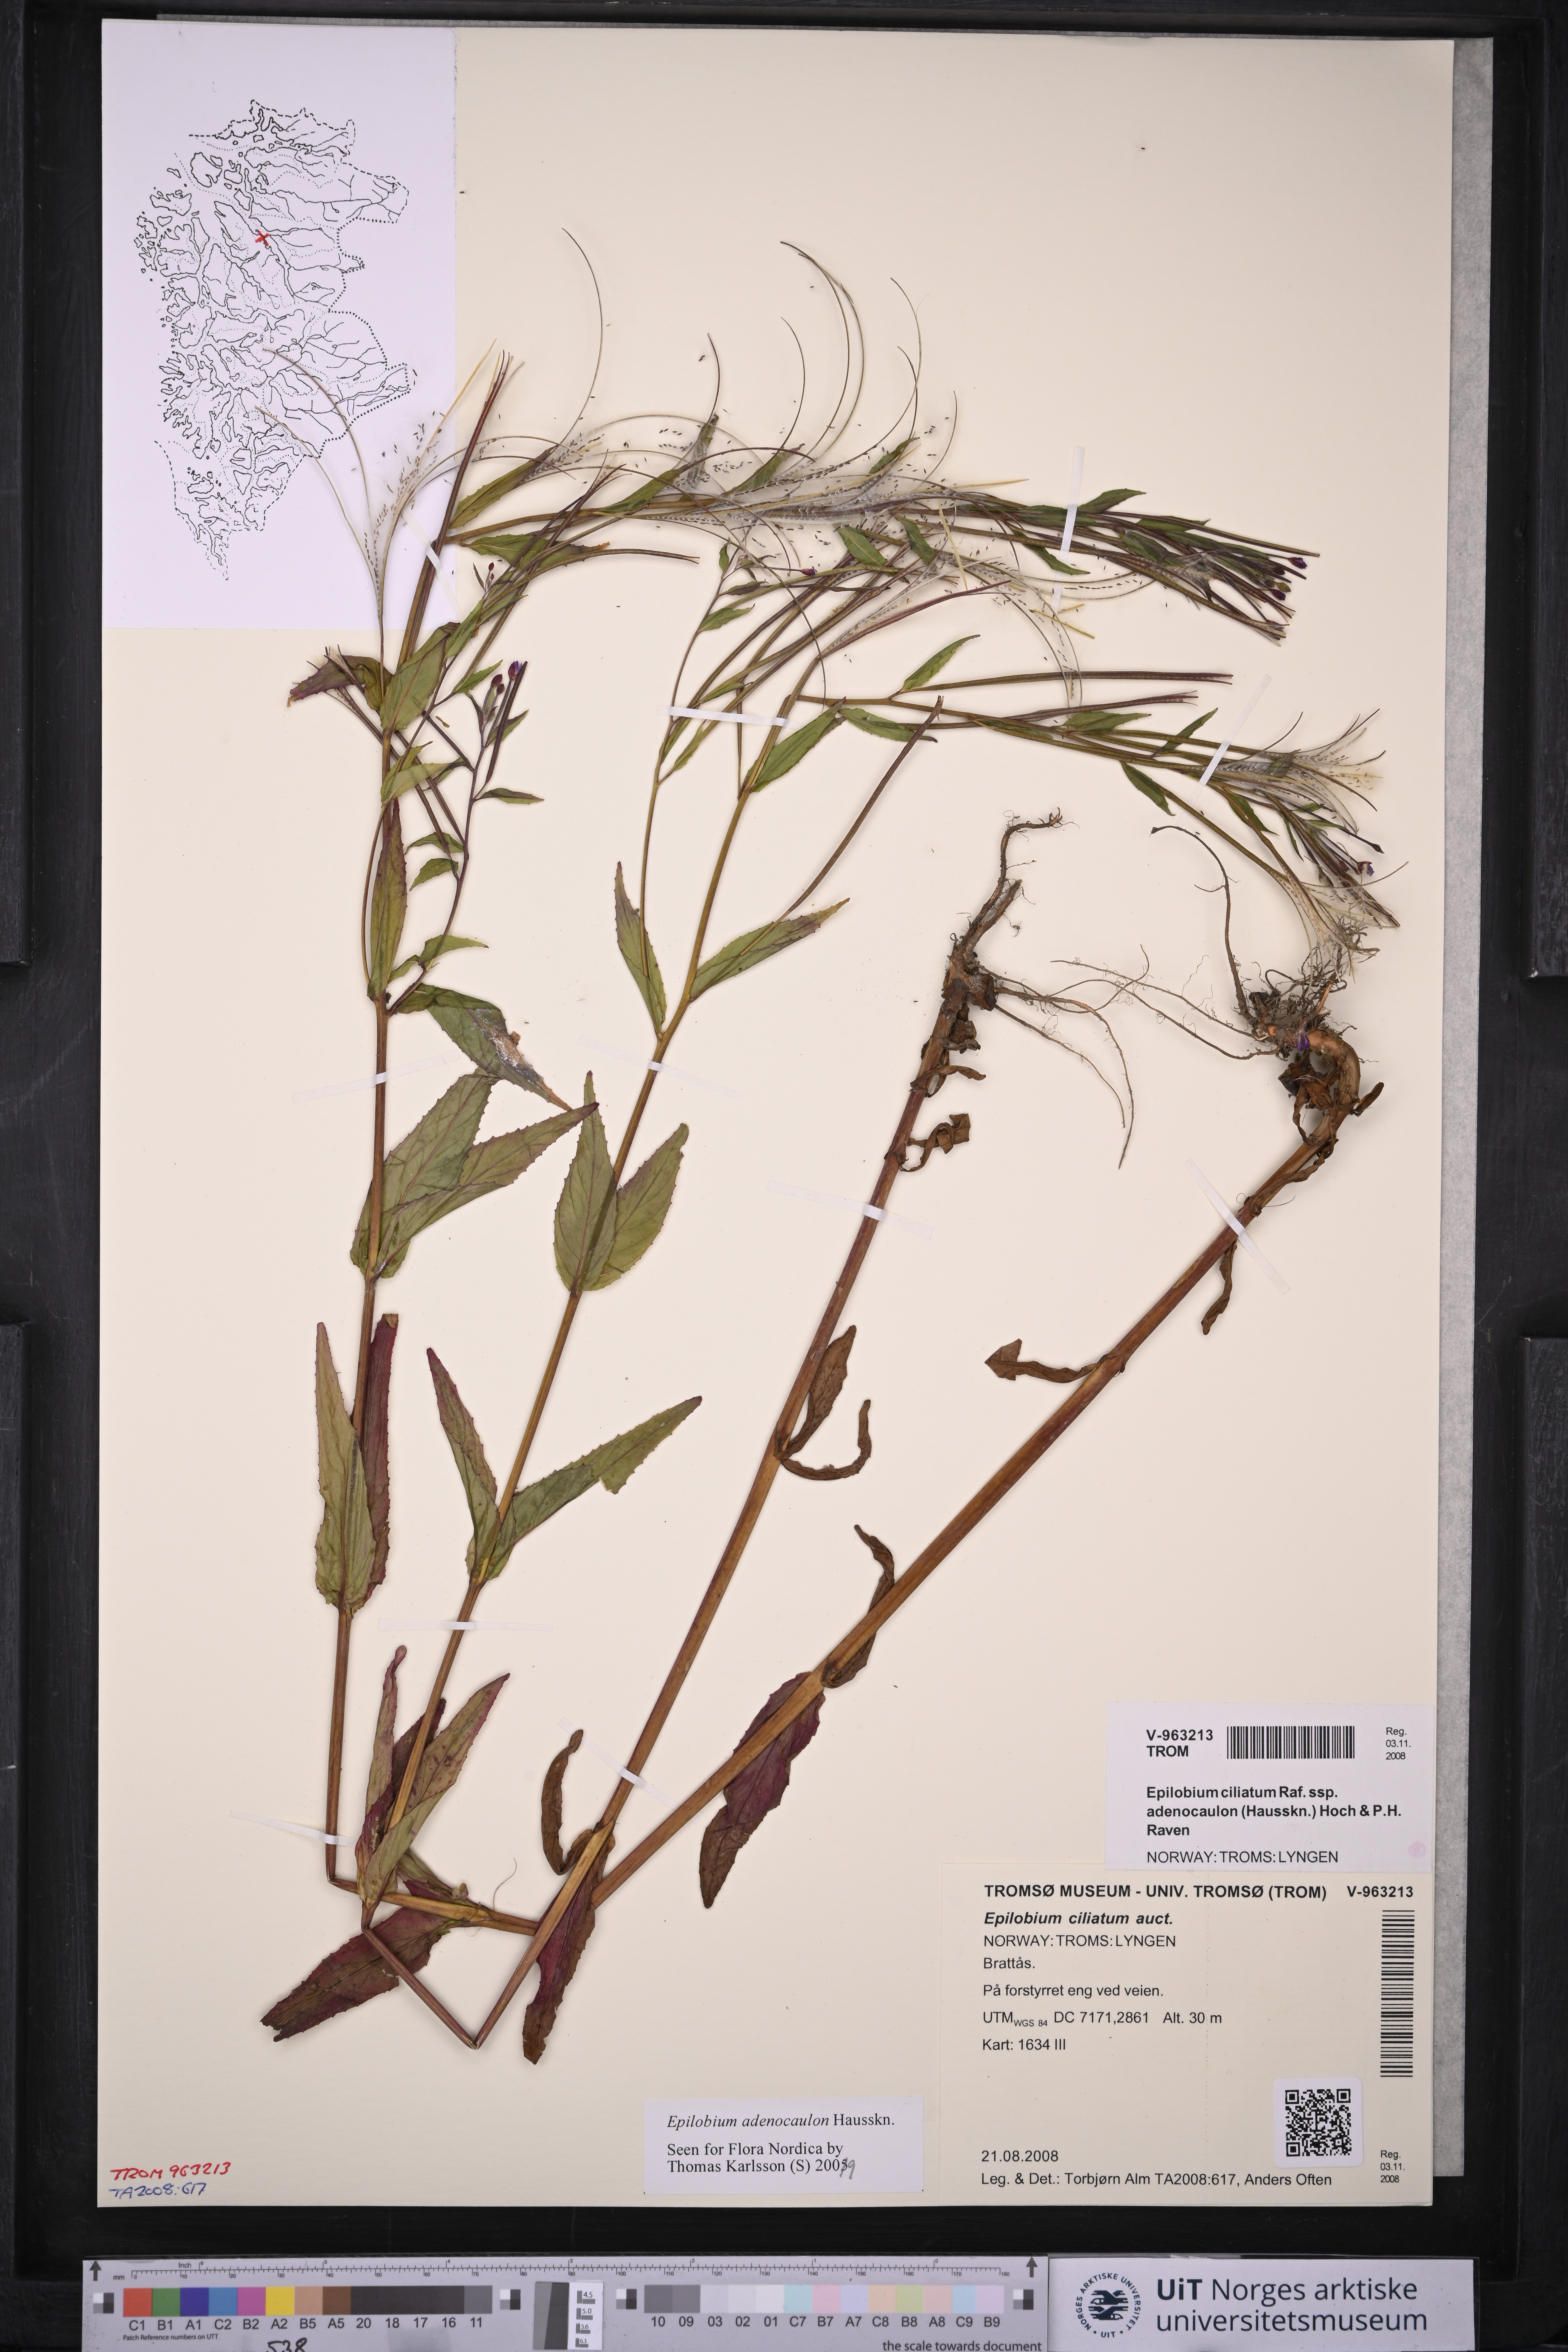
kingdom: Plantae
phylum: Tracheophyta
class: Magnoliopsida
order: Myrtales
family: Onagraceae
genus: Epilobium
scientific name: Epilobium ciliatum
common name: American willowherb
